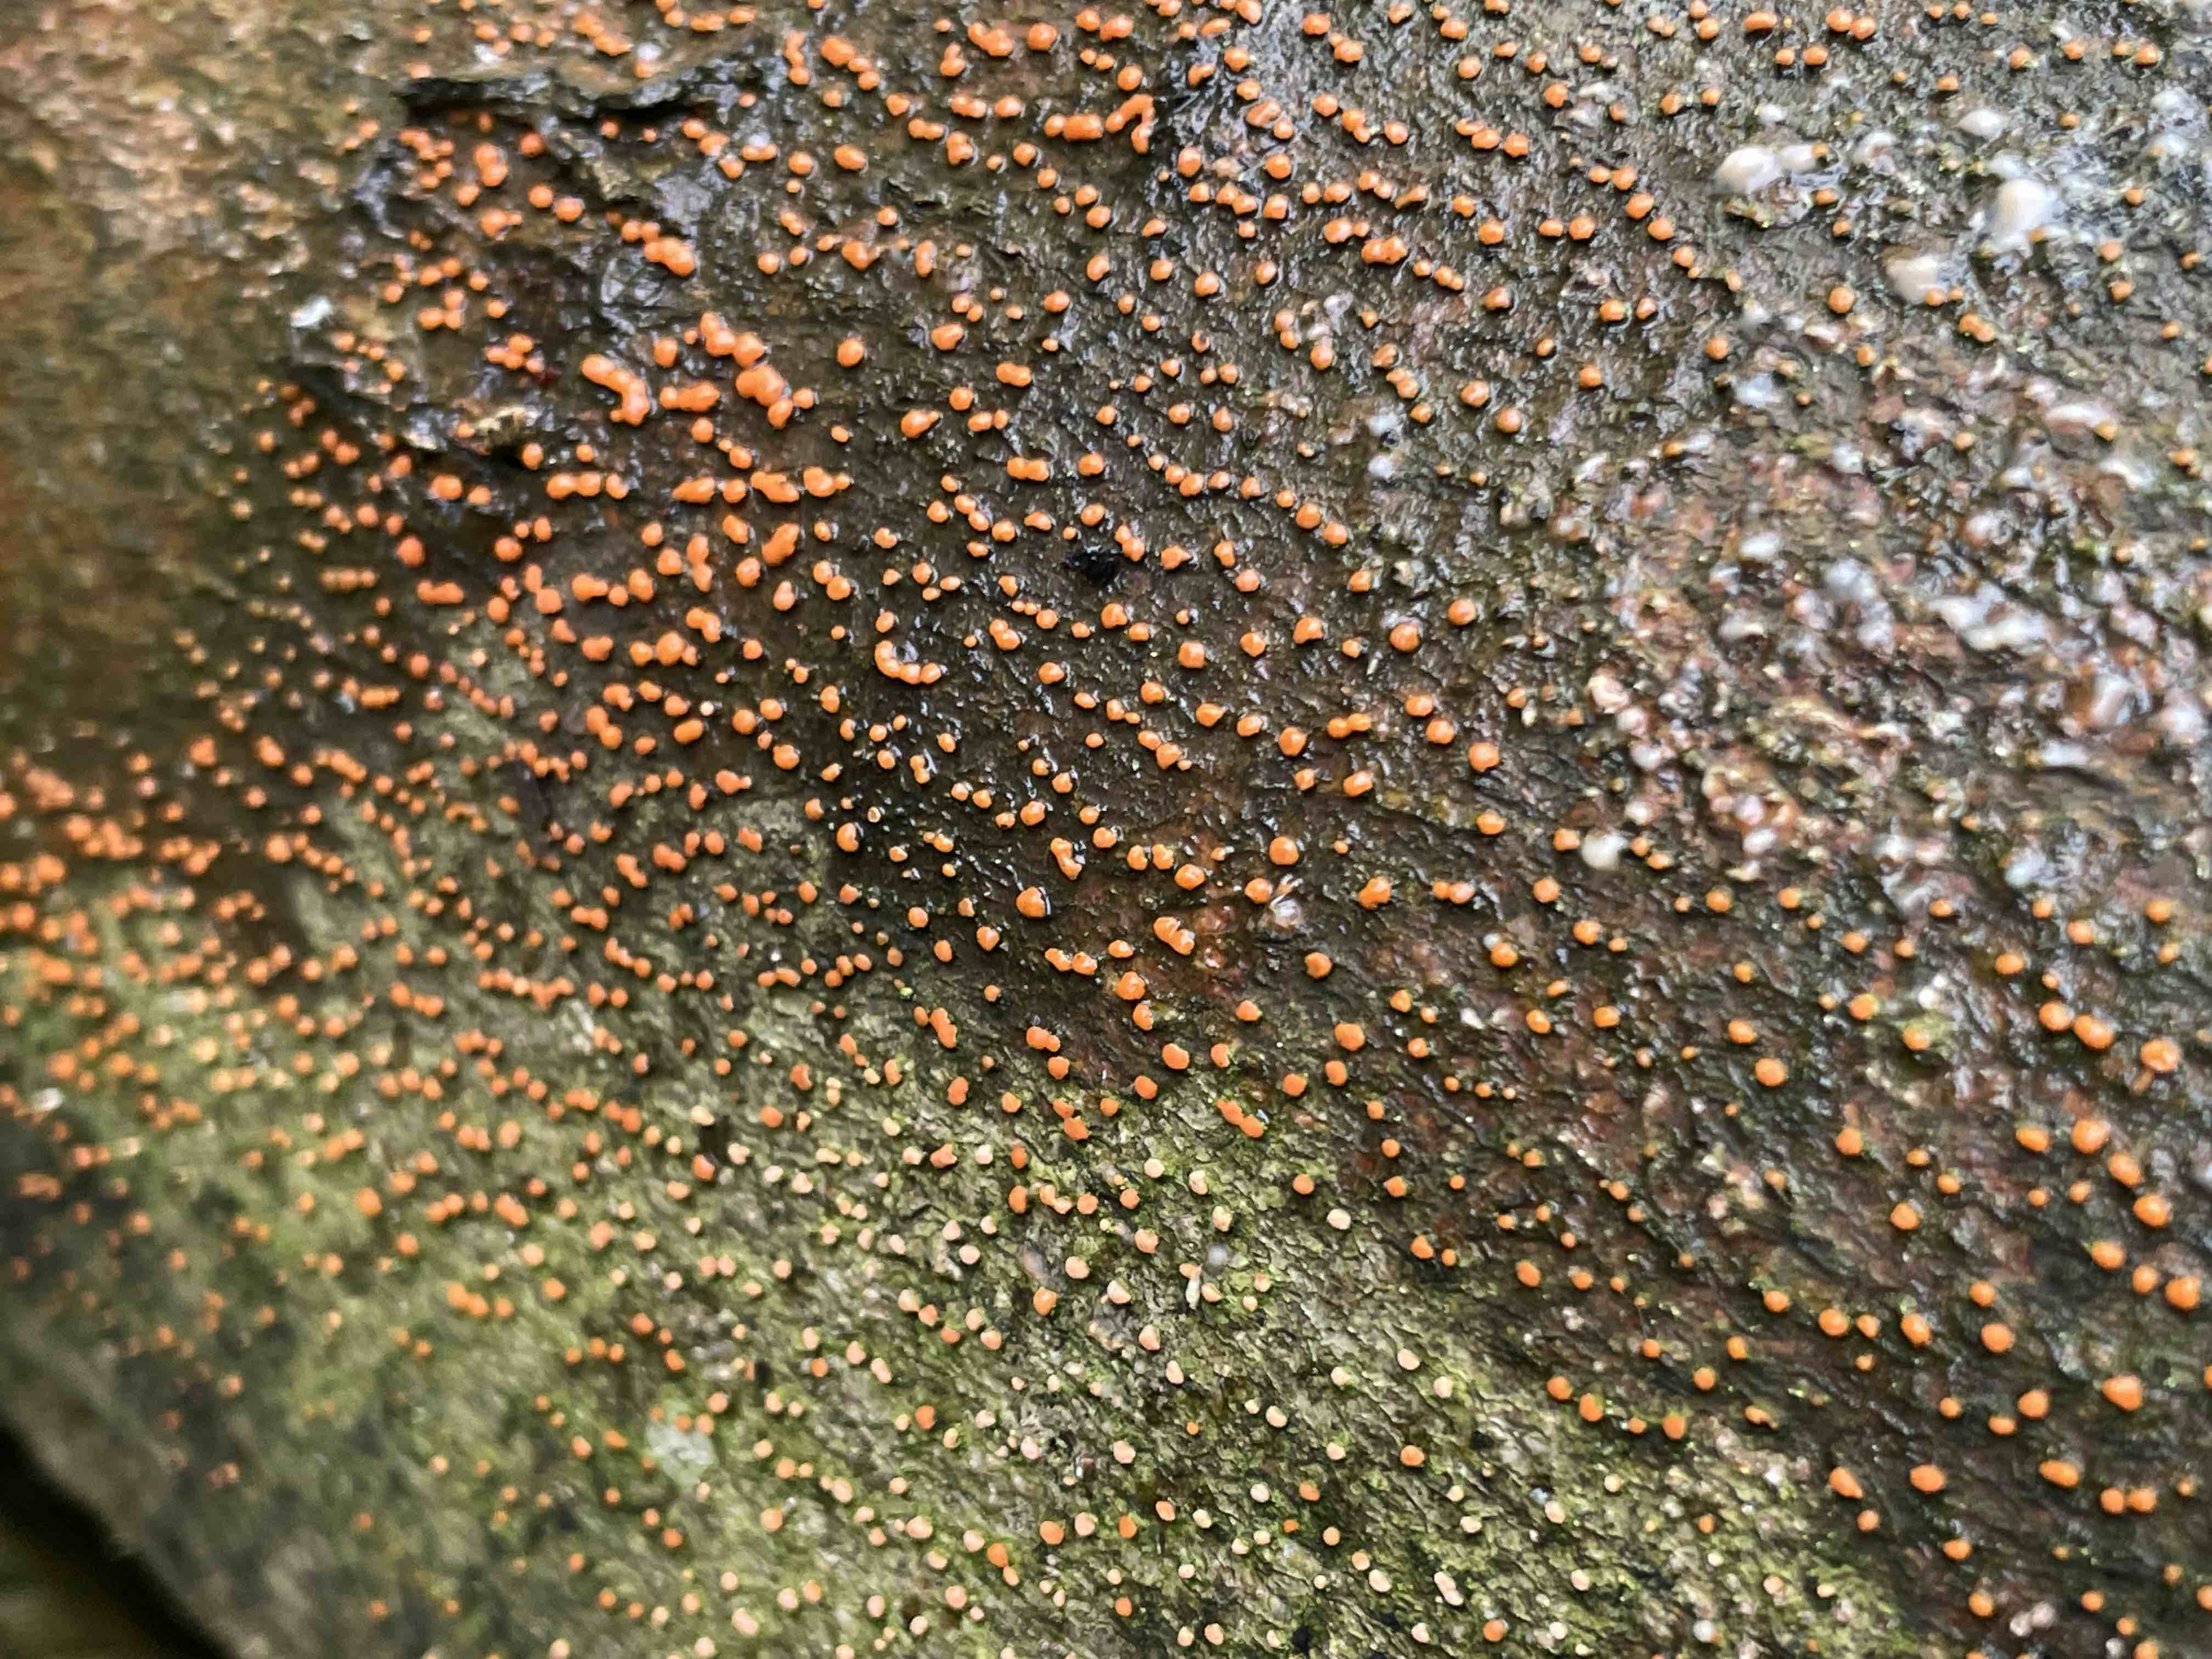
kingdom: Fungi
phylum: Ascomycota
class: Sordariomycetes
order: Hypocreales
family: Nectriaceae
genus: Nectria
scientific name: Nectria cinnabarina
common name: almindelig cinnobersvamp
